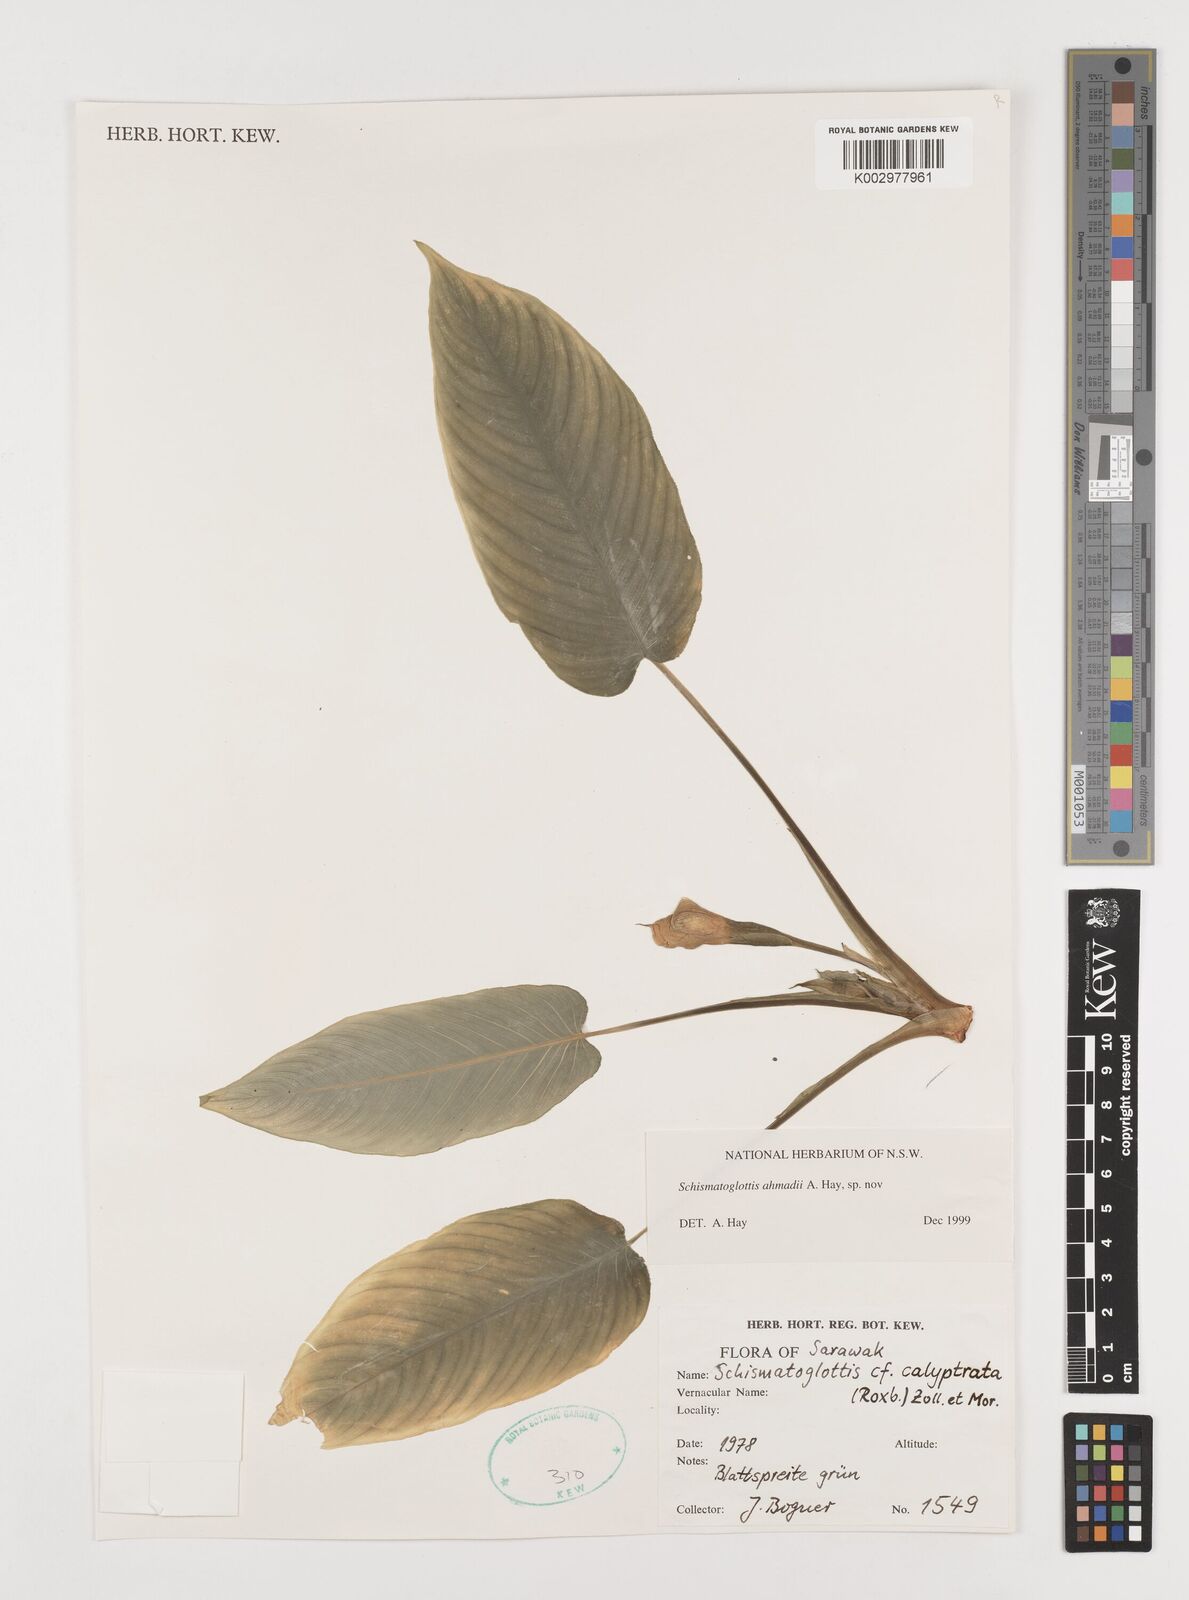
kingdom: Plantae
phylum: Tracheophyta
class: Liliopsida
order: Alismatales
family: Araceae
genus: Schismatoglottis
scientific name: Schismatoglottis ahmadii
